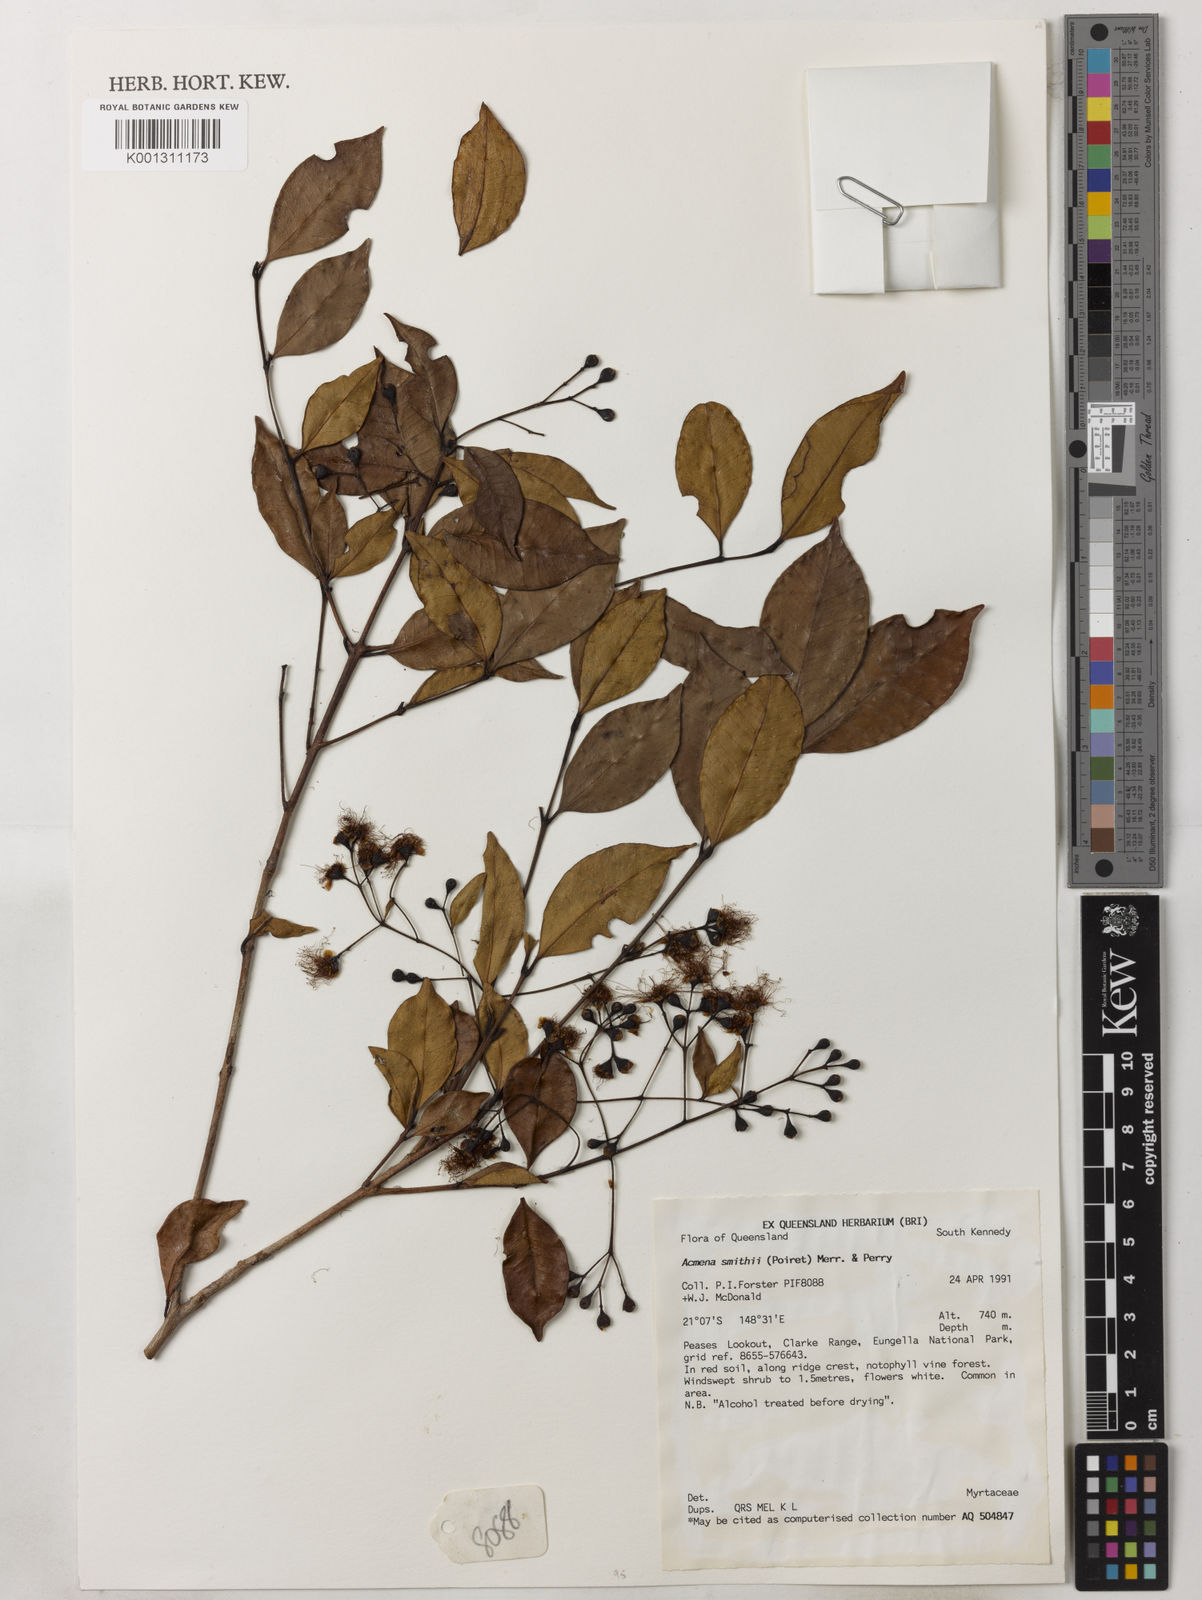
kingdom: Plantae
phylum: Tracheophyta
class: Magnoliopsida
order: Myrtales
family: Myrtaceae
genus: Syzygium
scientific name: Syzygium smithii
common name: Lilly-pilly
